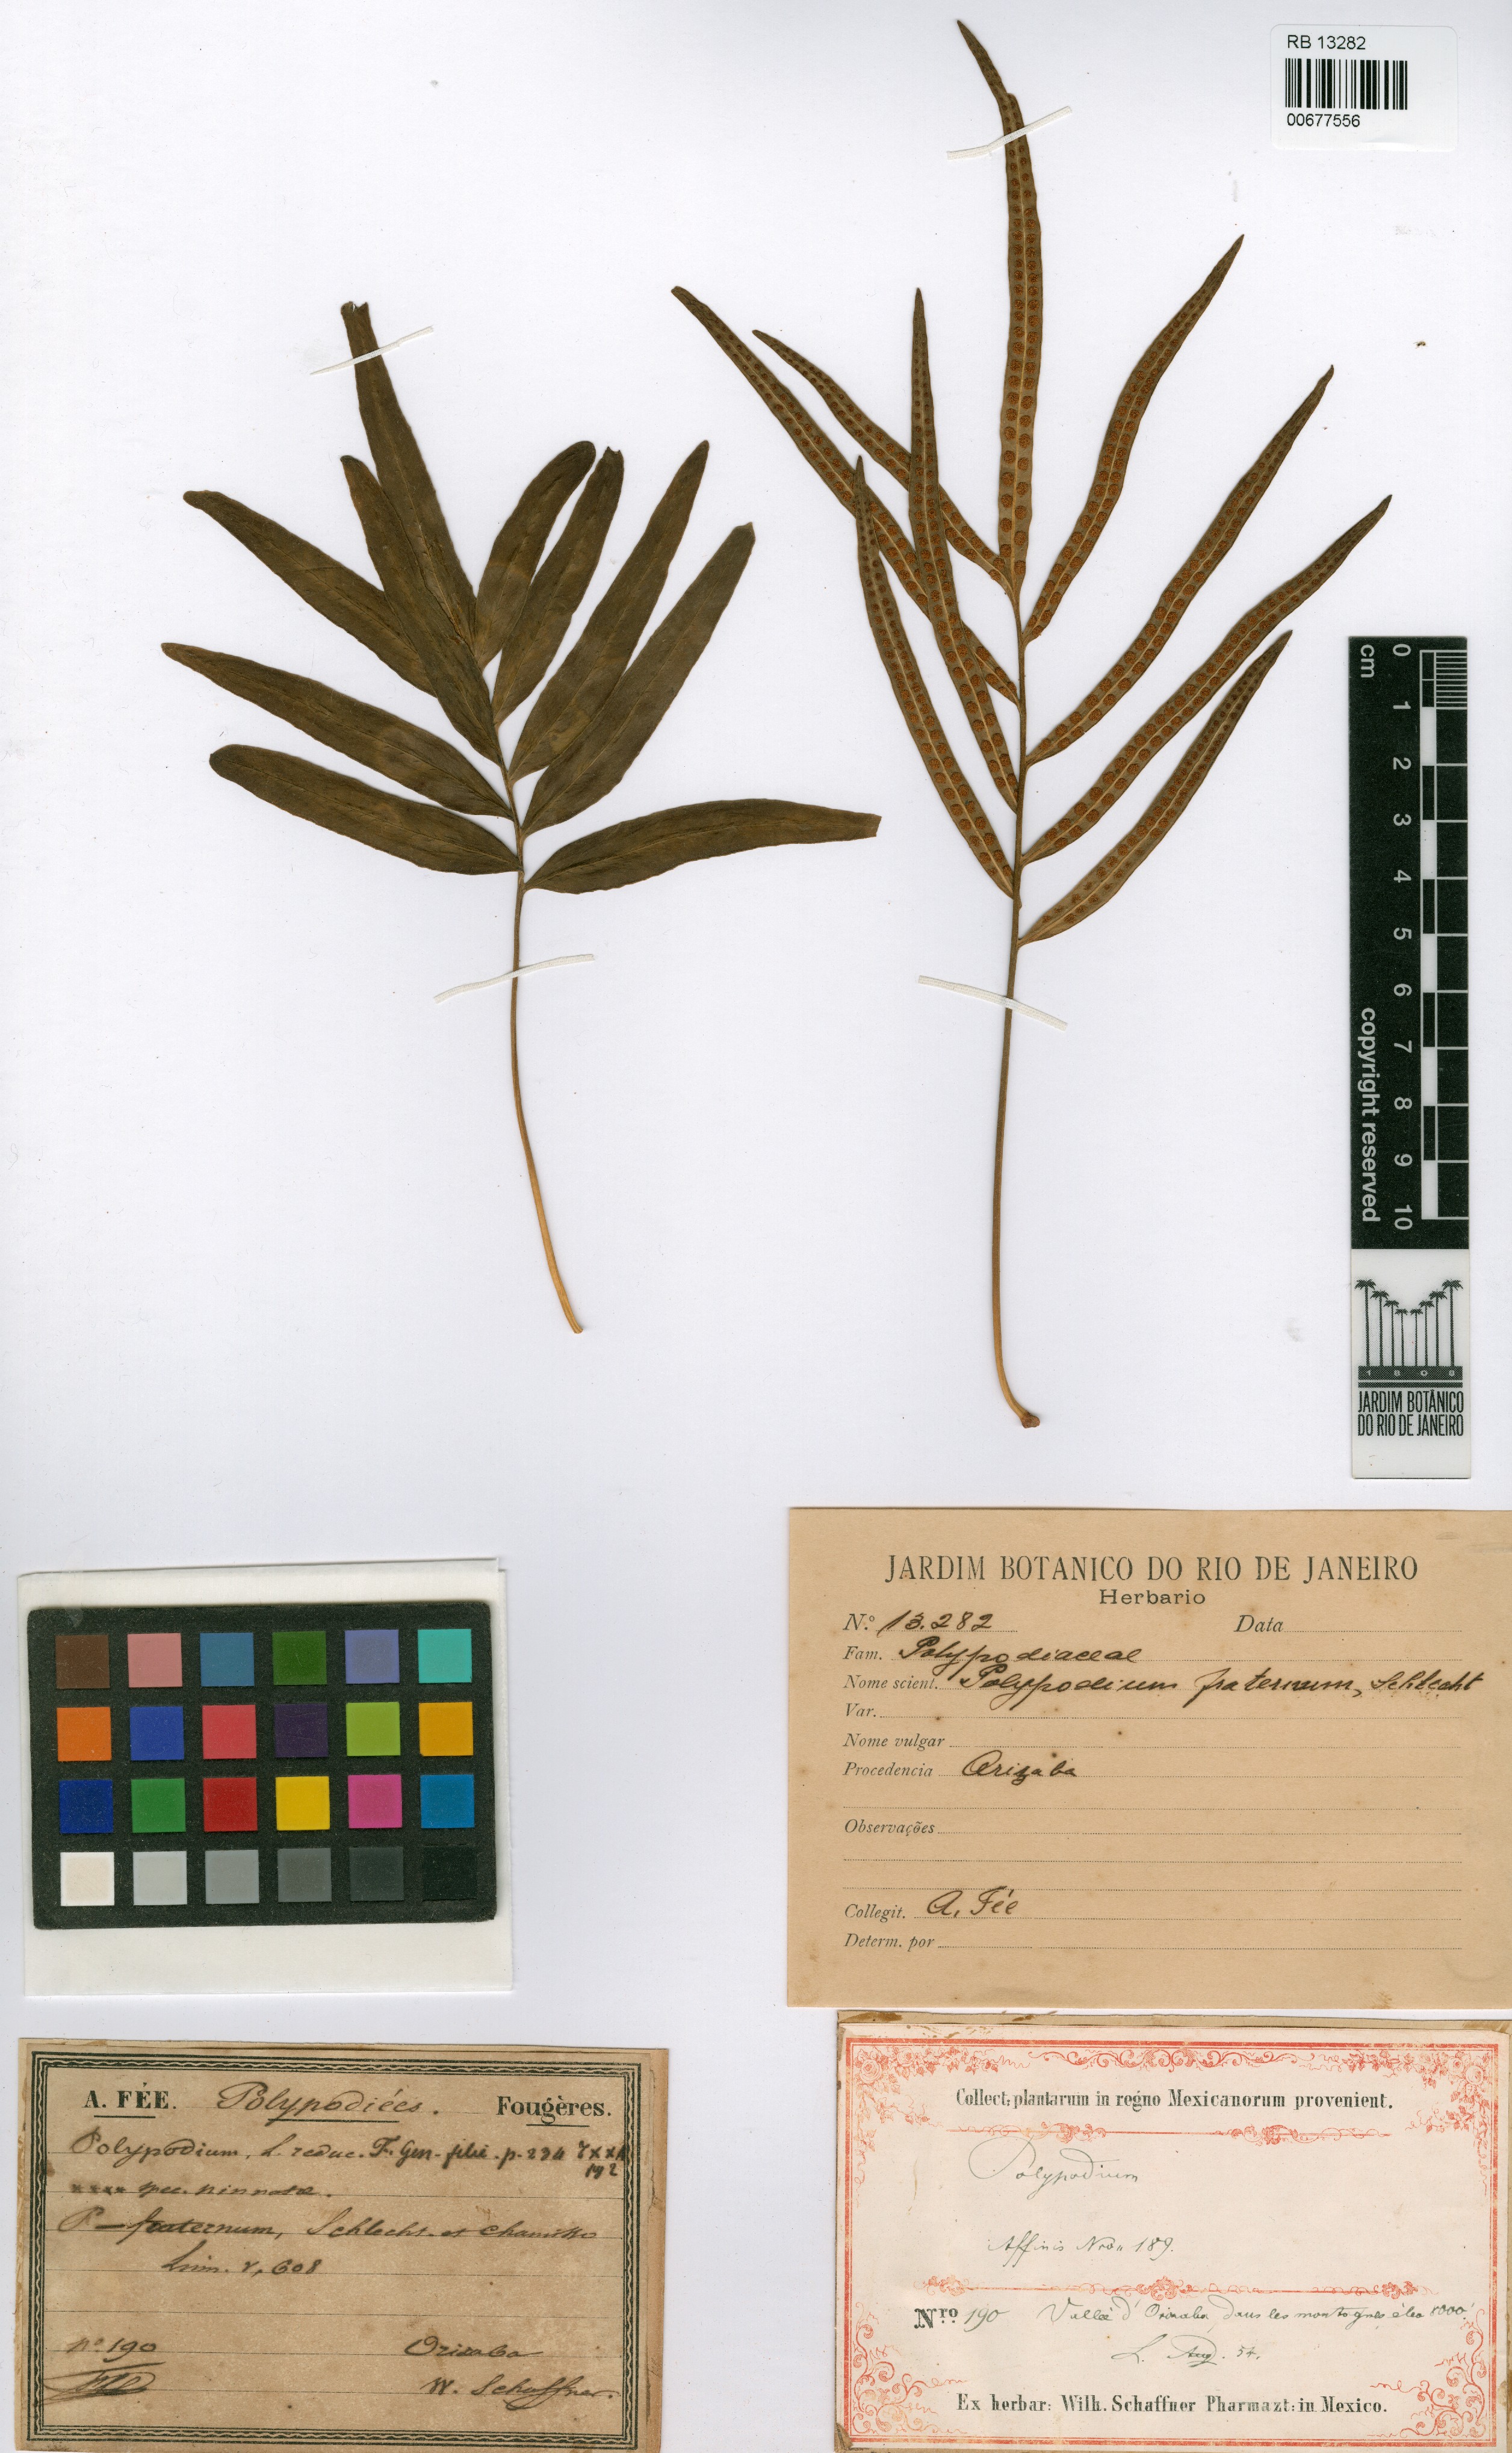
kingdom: Plantae
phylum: Tracheophyta
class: Polypodiopsida
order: Polypodiales
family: Polypodiaceae
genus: Polypodium
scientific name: Polypodium fraternum
